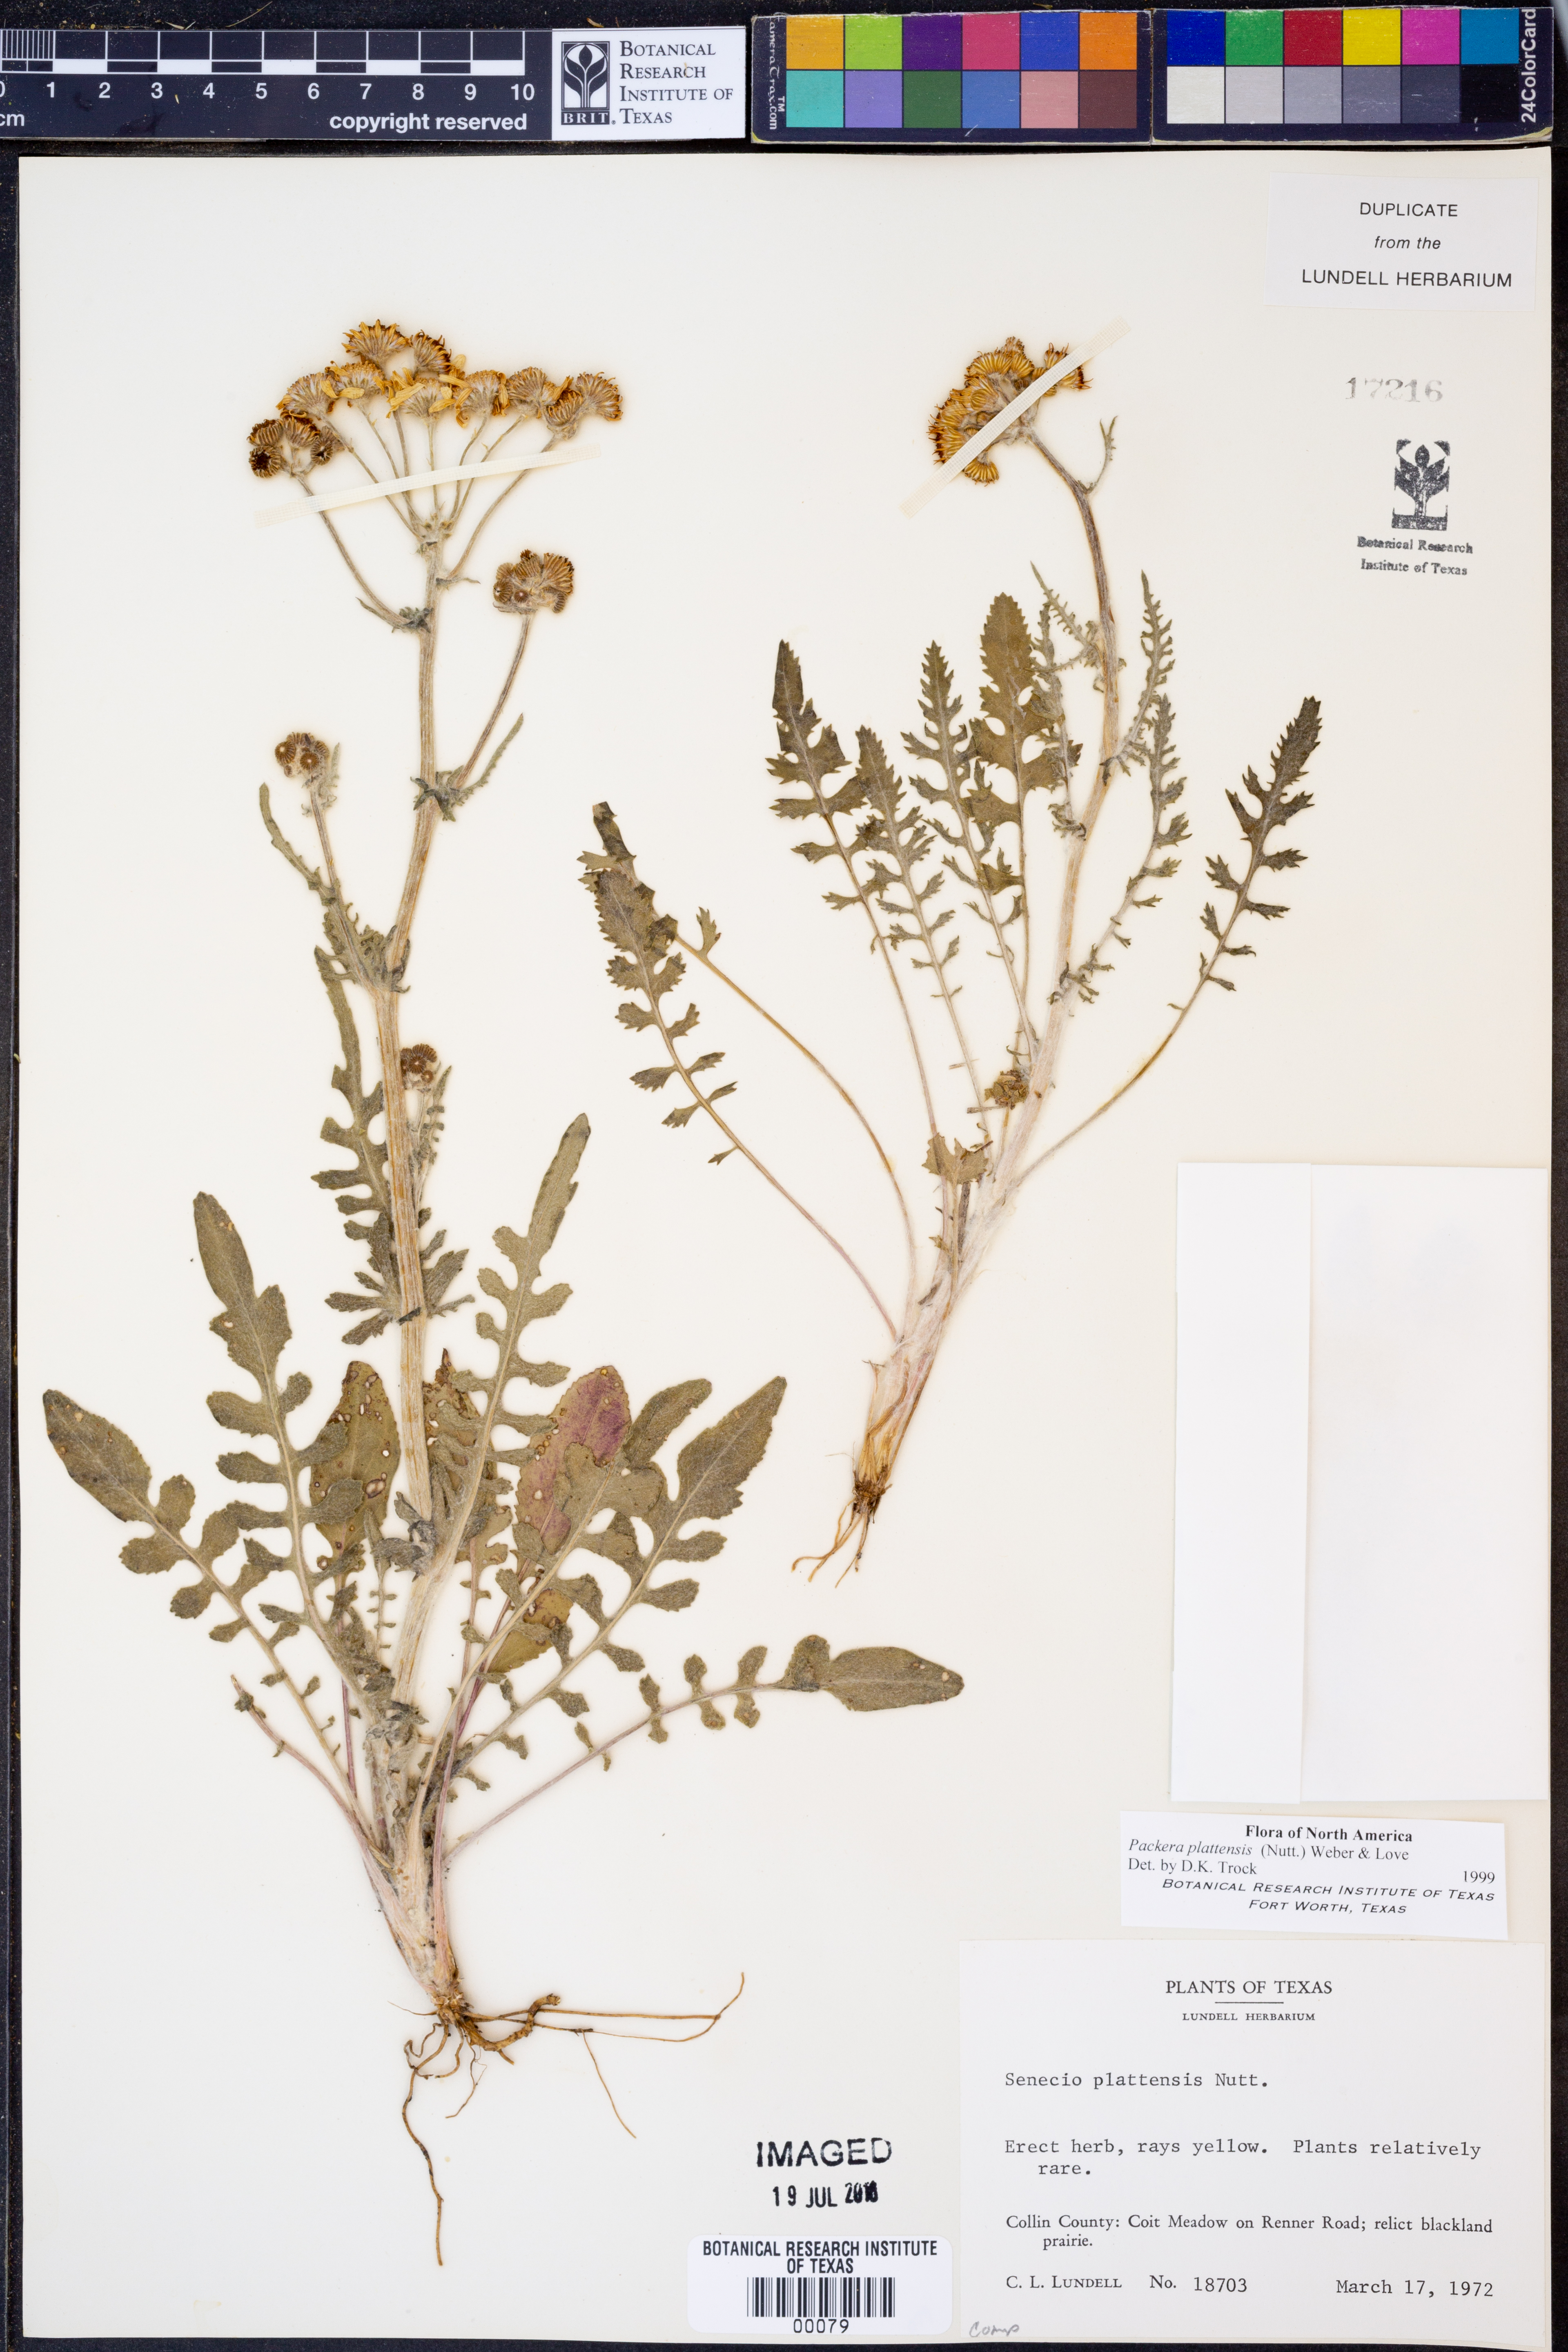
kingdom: Plantae
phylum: Tracheophyta
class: Magnoliopsida
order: Asterales
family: Asteraceae
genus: Packera
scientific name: Packera plattensis
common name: Prairie groundsel
